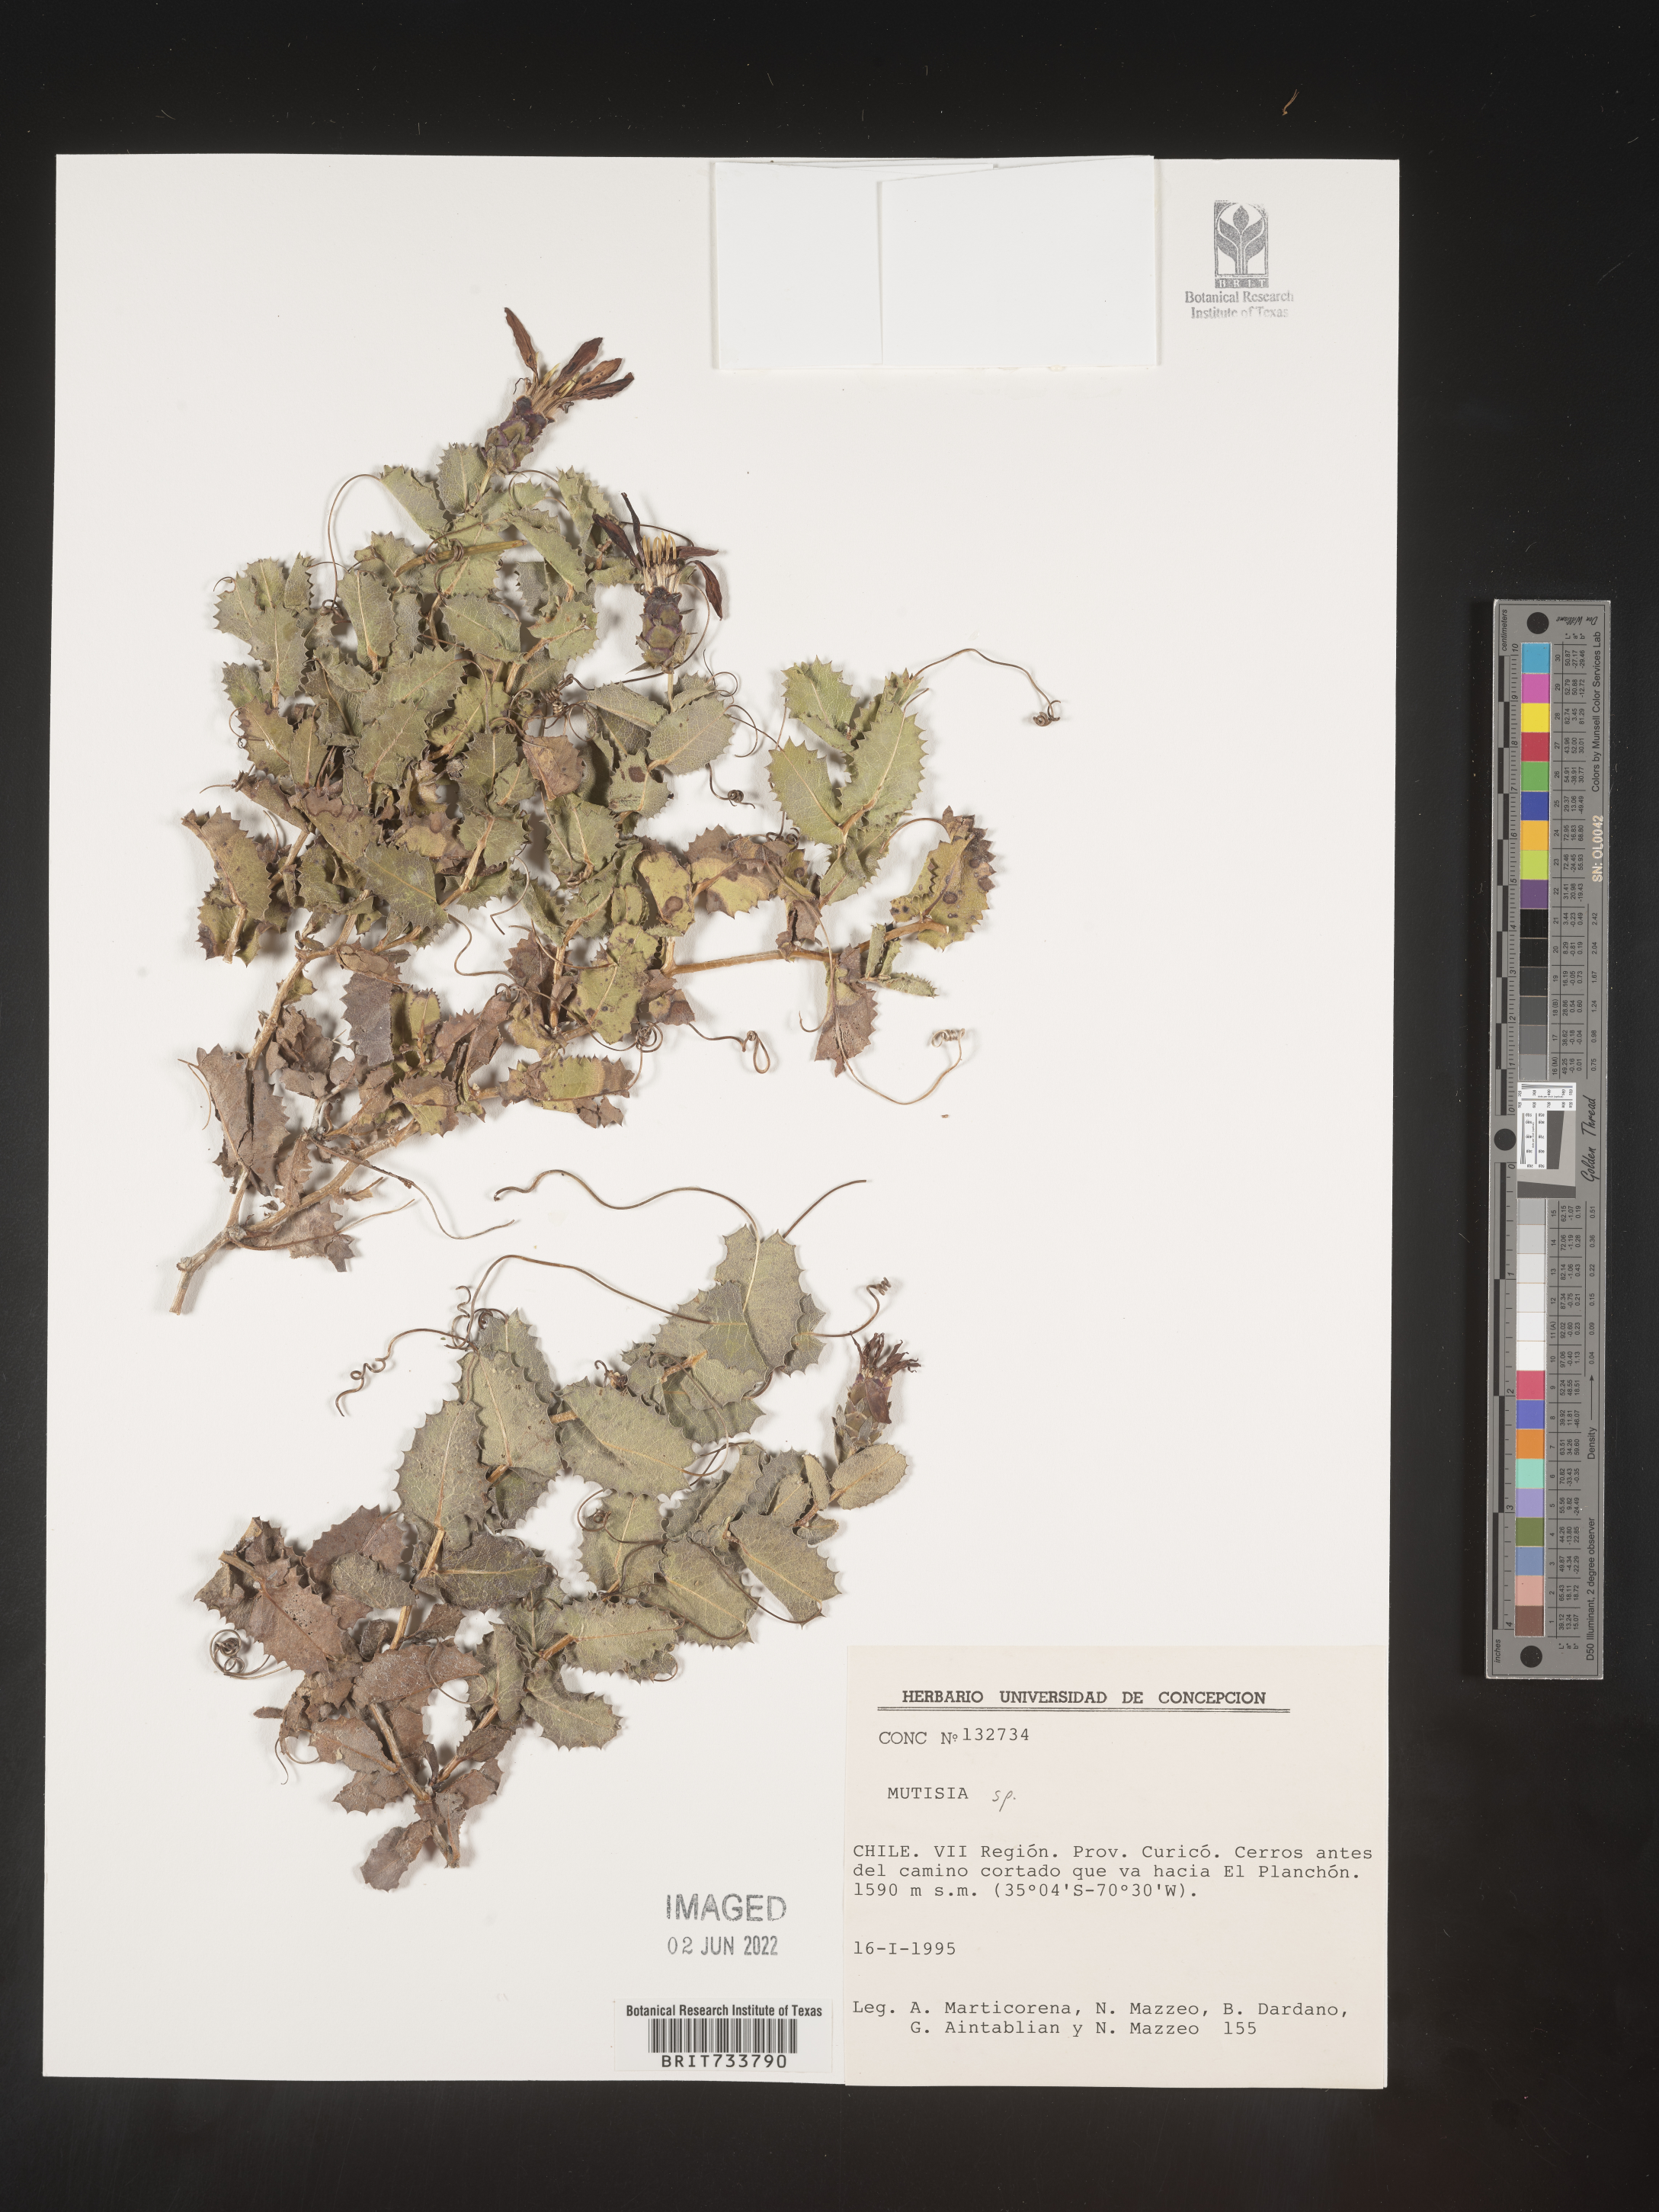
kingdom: Plantae
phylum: Tracheophyta
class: Magnoliopsida
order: Asterales
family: Asteraceae
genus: Mutisia
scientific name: Mutisia
